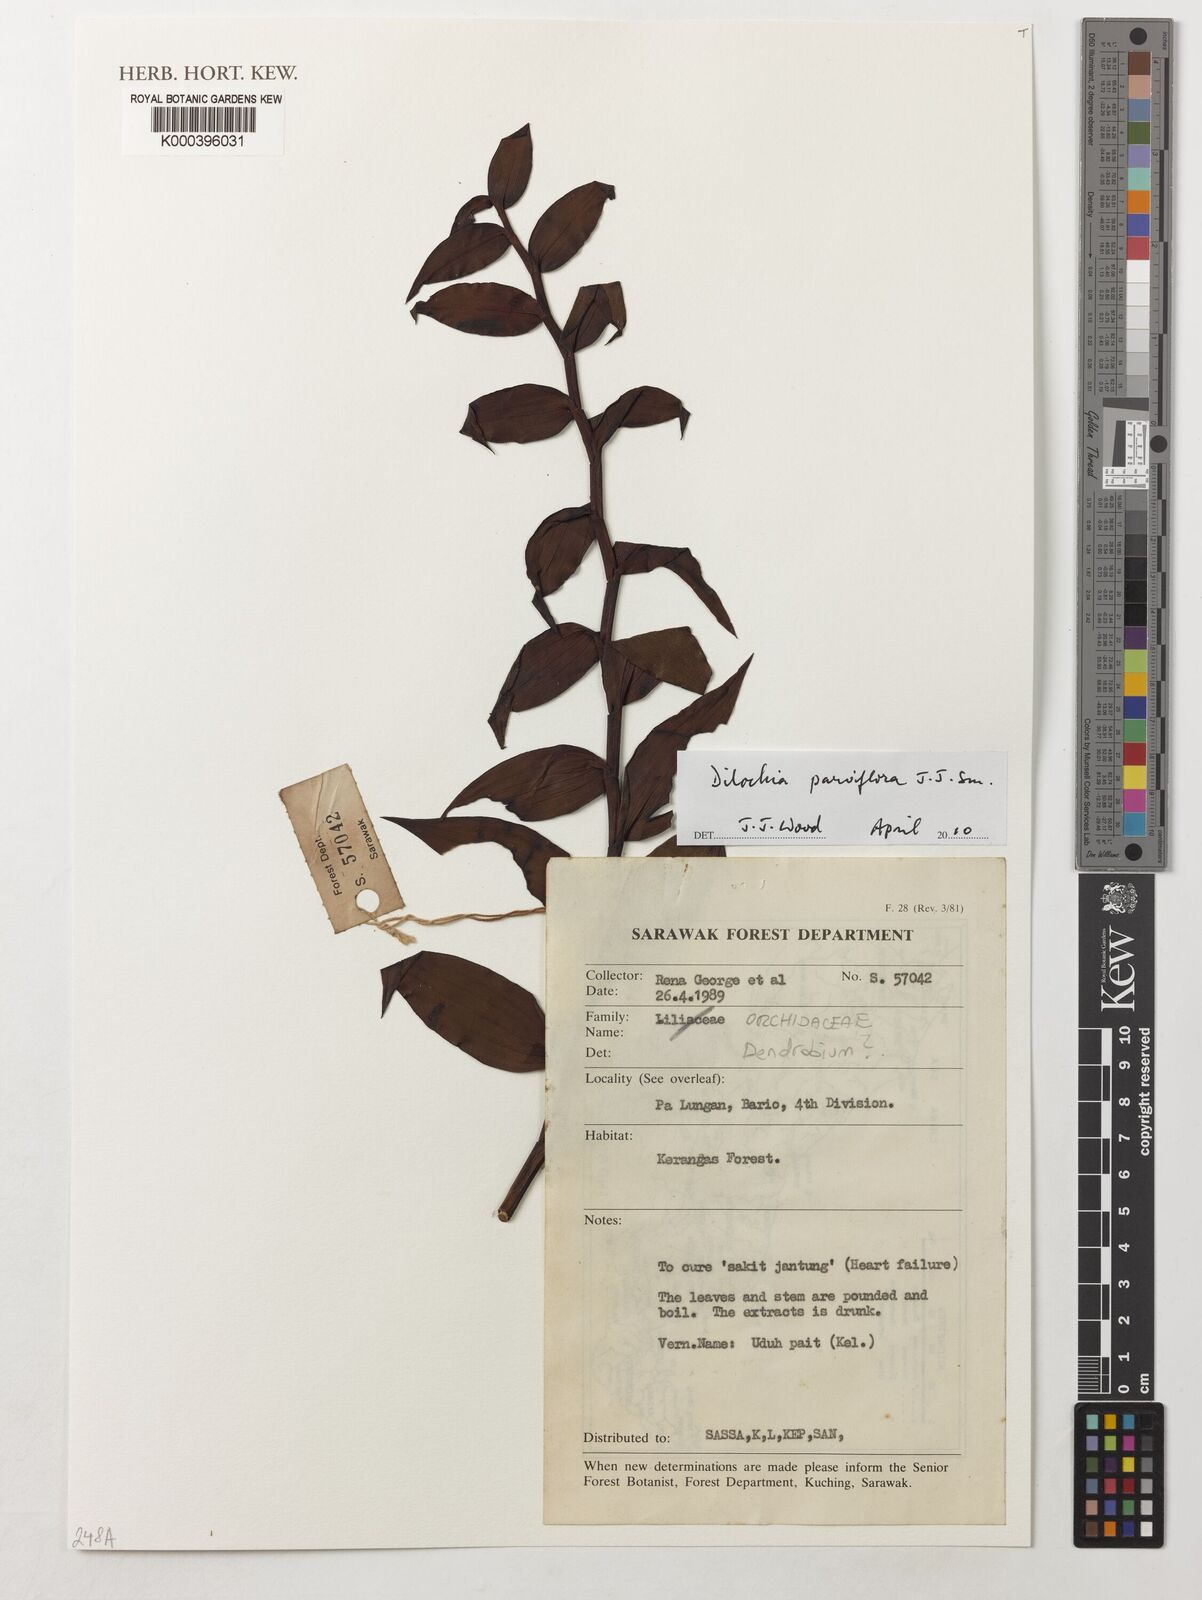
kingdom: Plantae
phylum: Tracheophyta
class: Liliopsida
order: Asparagales
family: Orchidaceae
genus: Dilochia
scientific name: Dilochia parviflora
